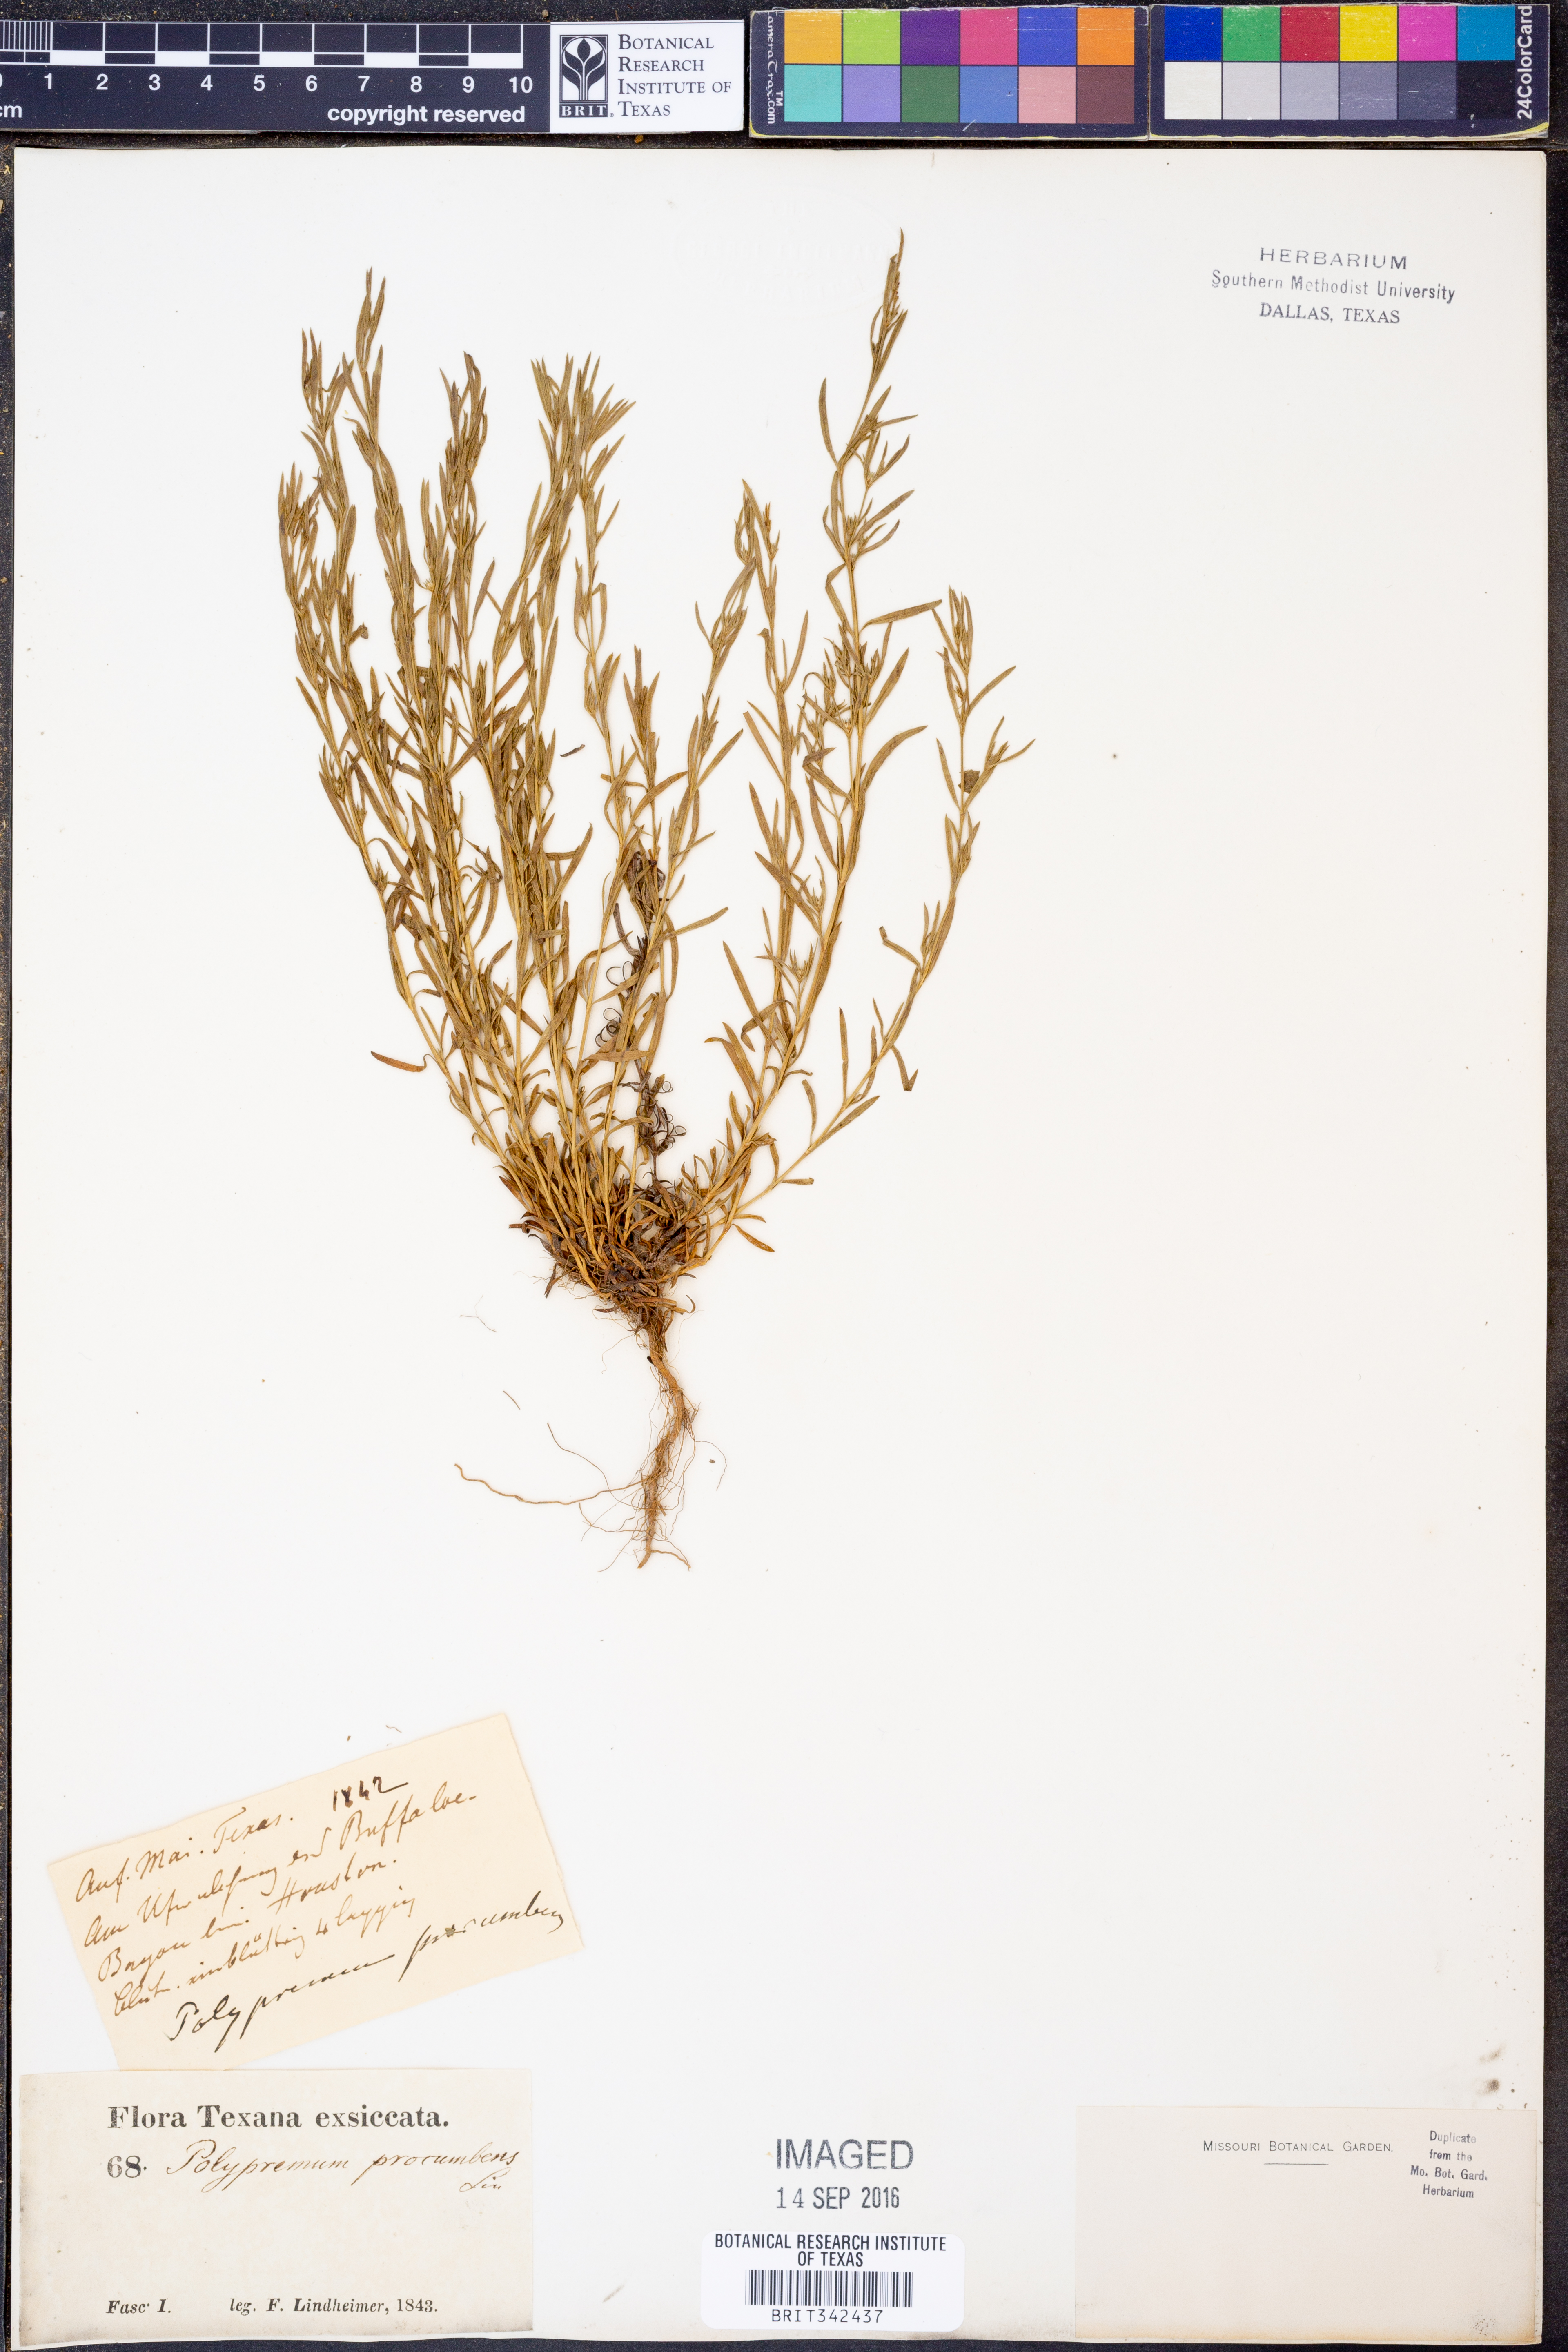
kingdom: Plantae
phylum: Tracheophyta
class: Magnoliopsida
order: Lamiales
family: Tetrachondraceae
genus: Polypremum
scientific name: Polypremum procumbens
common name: Juniper-leaf
